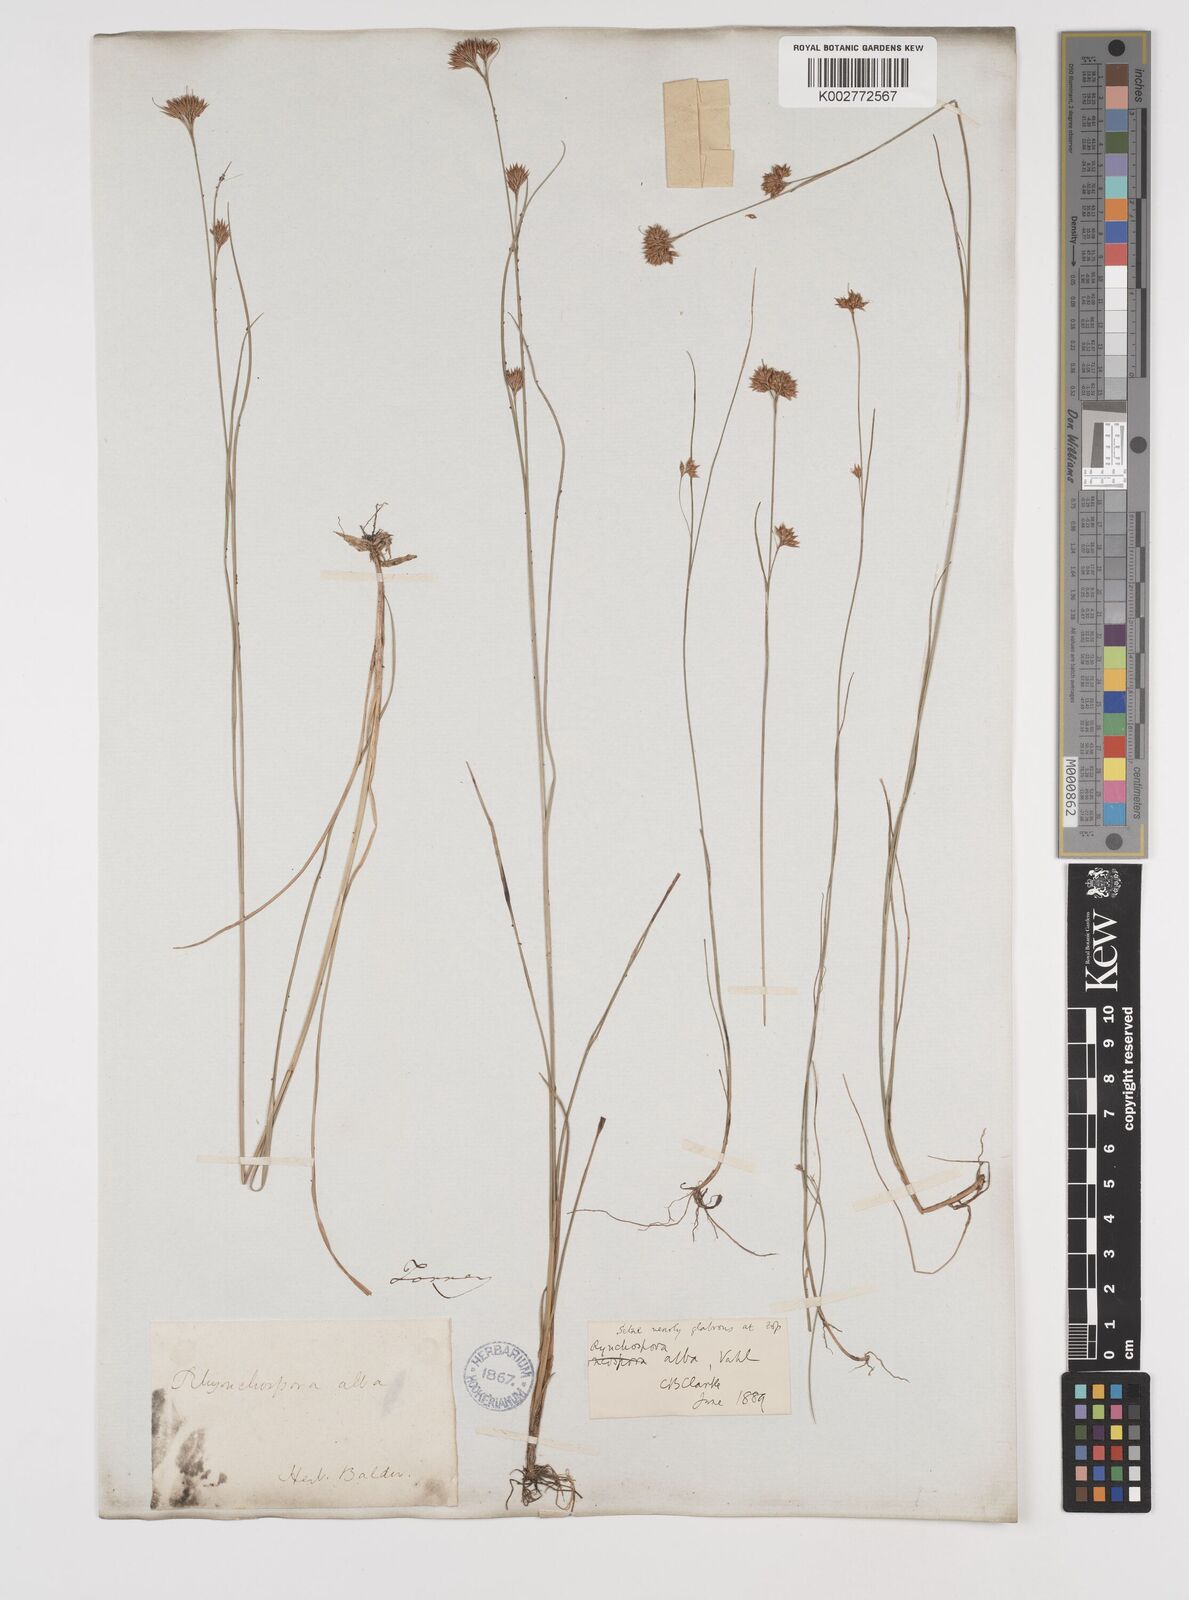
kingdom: Plantae
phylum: Tracheophyta
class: Liliopsida
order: Poales
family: Cyperaceae
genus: Rhynchospora
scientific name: Rhynchospora alba
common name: White beak-sedge
